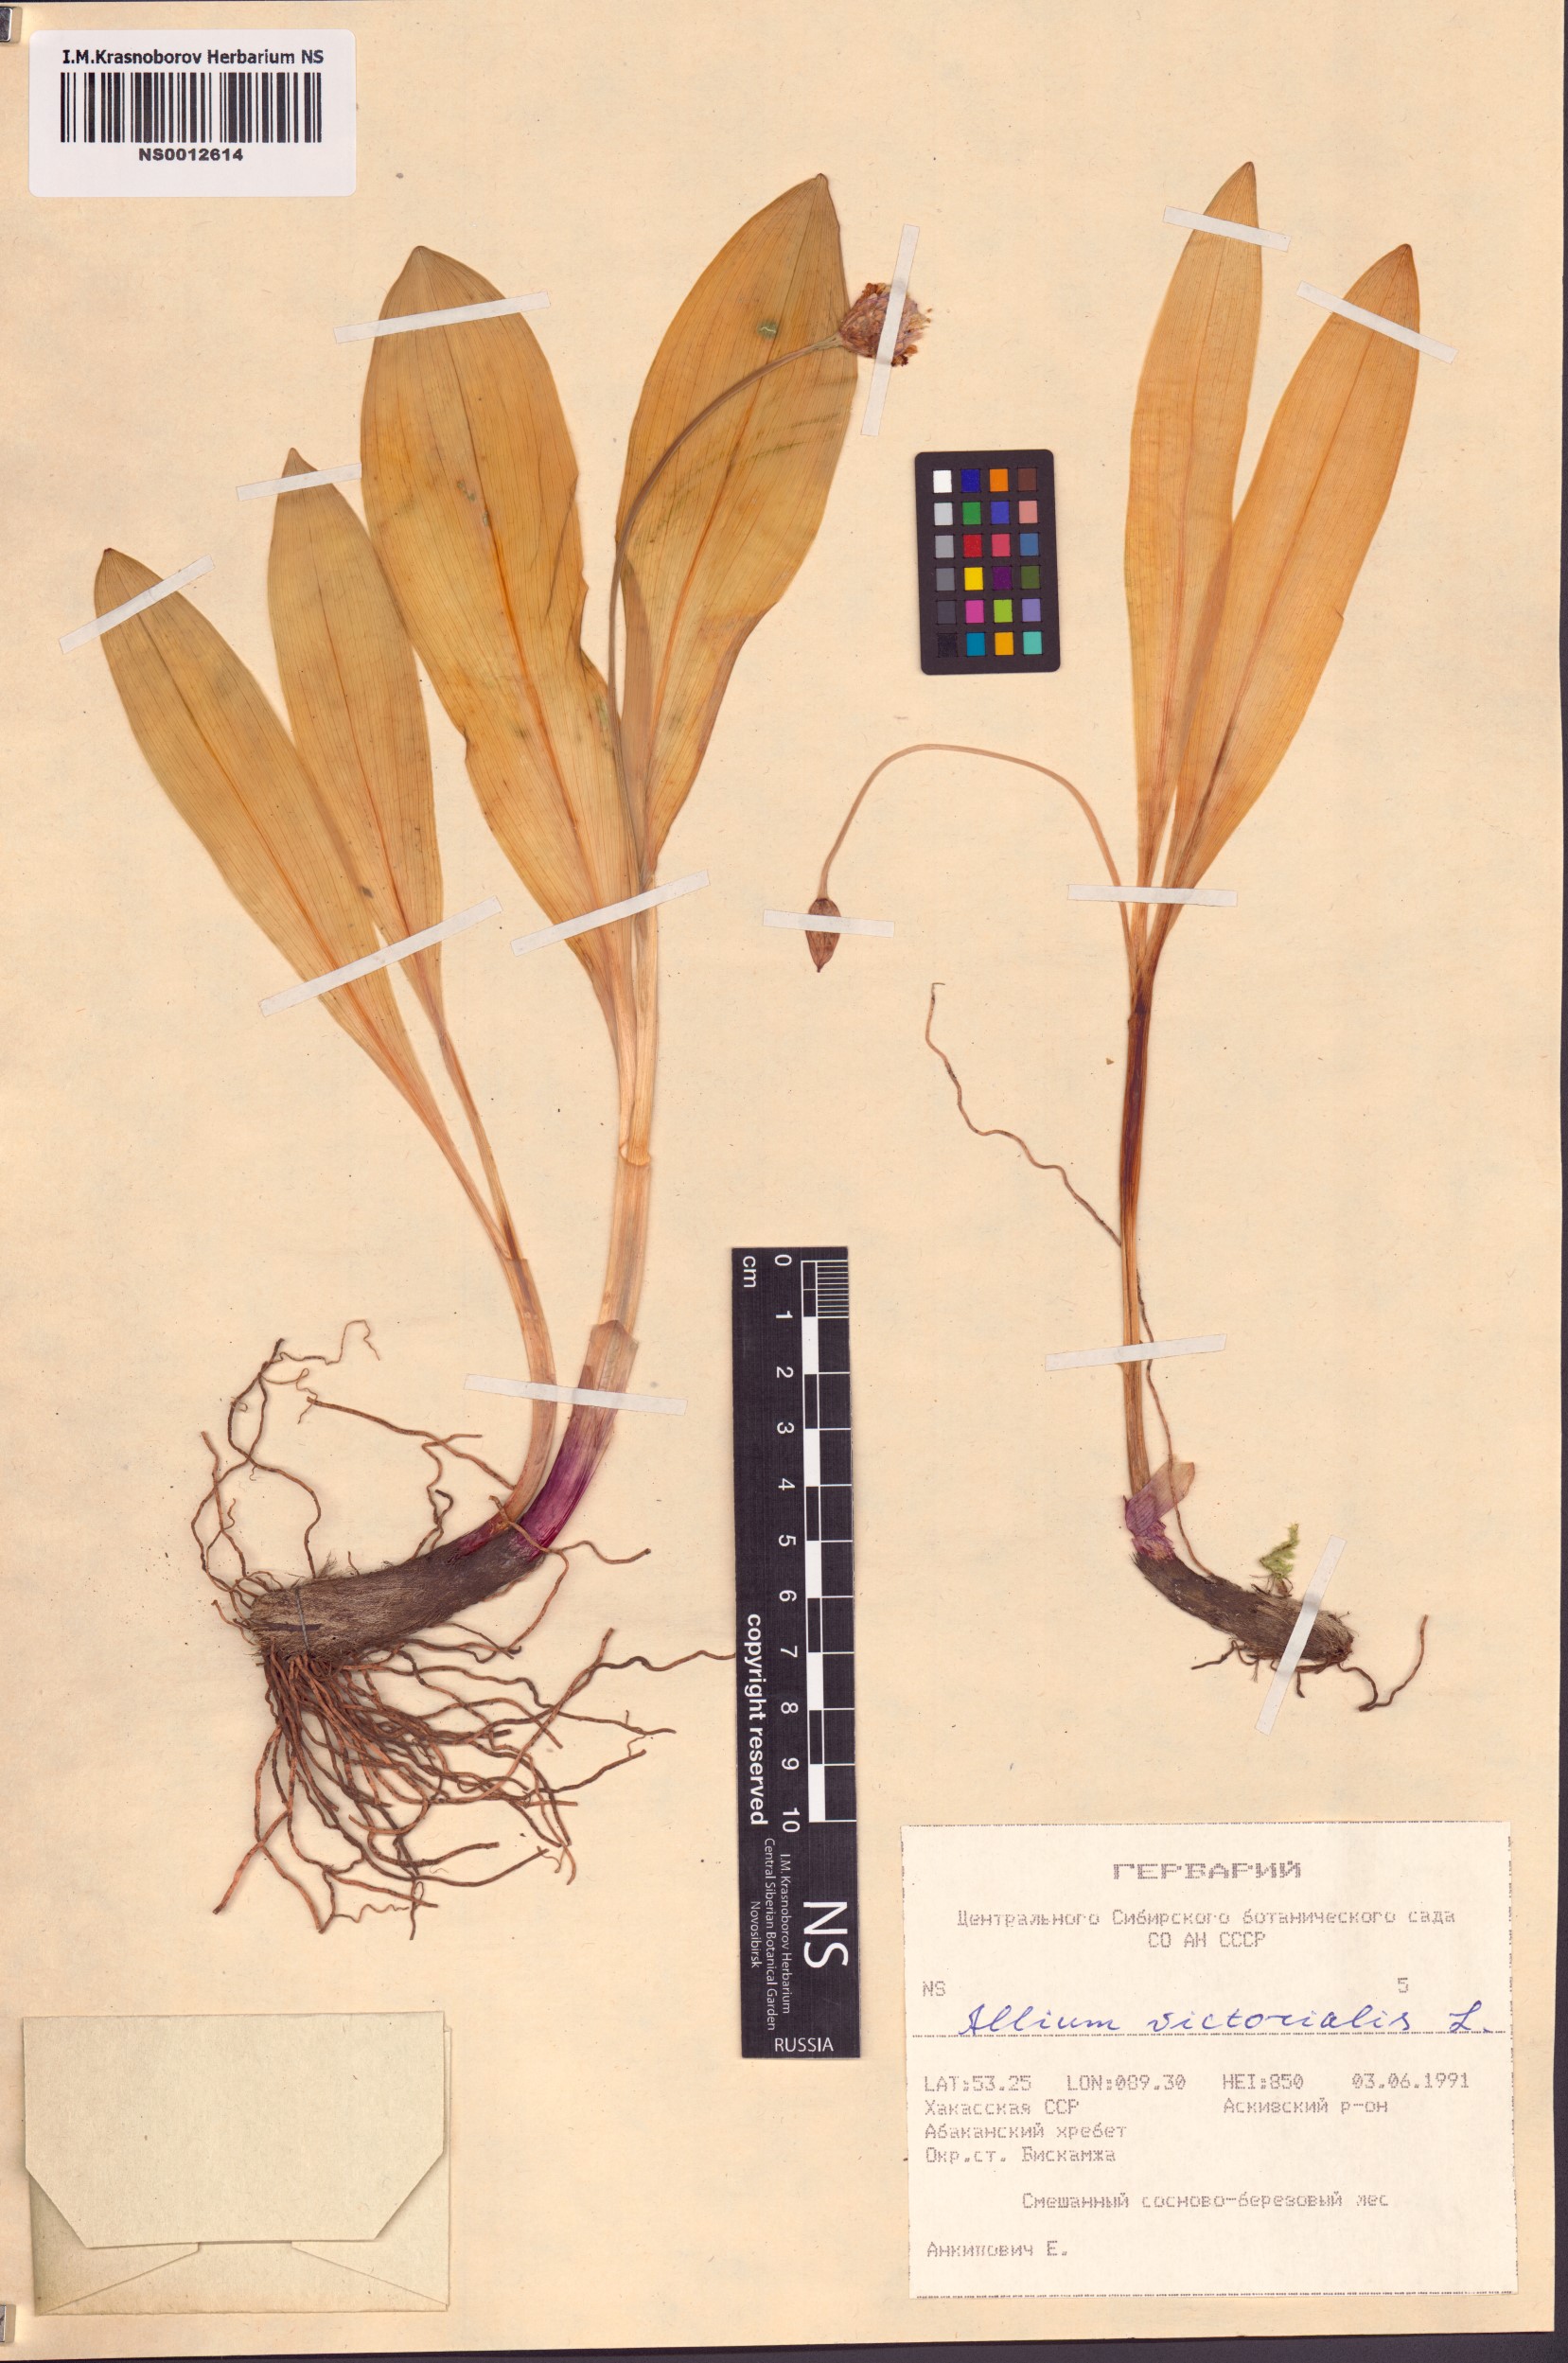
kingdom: Plantae
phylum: Tracheophyta
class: Liliopsida
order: Asparagales
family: Amaryllidaceae
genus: Allium
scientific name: Allium microdictyon
